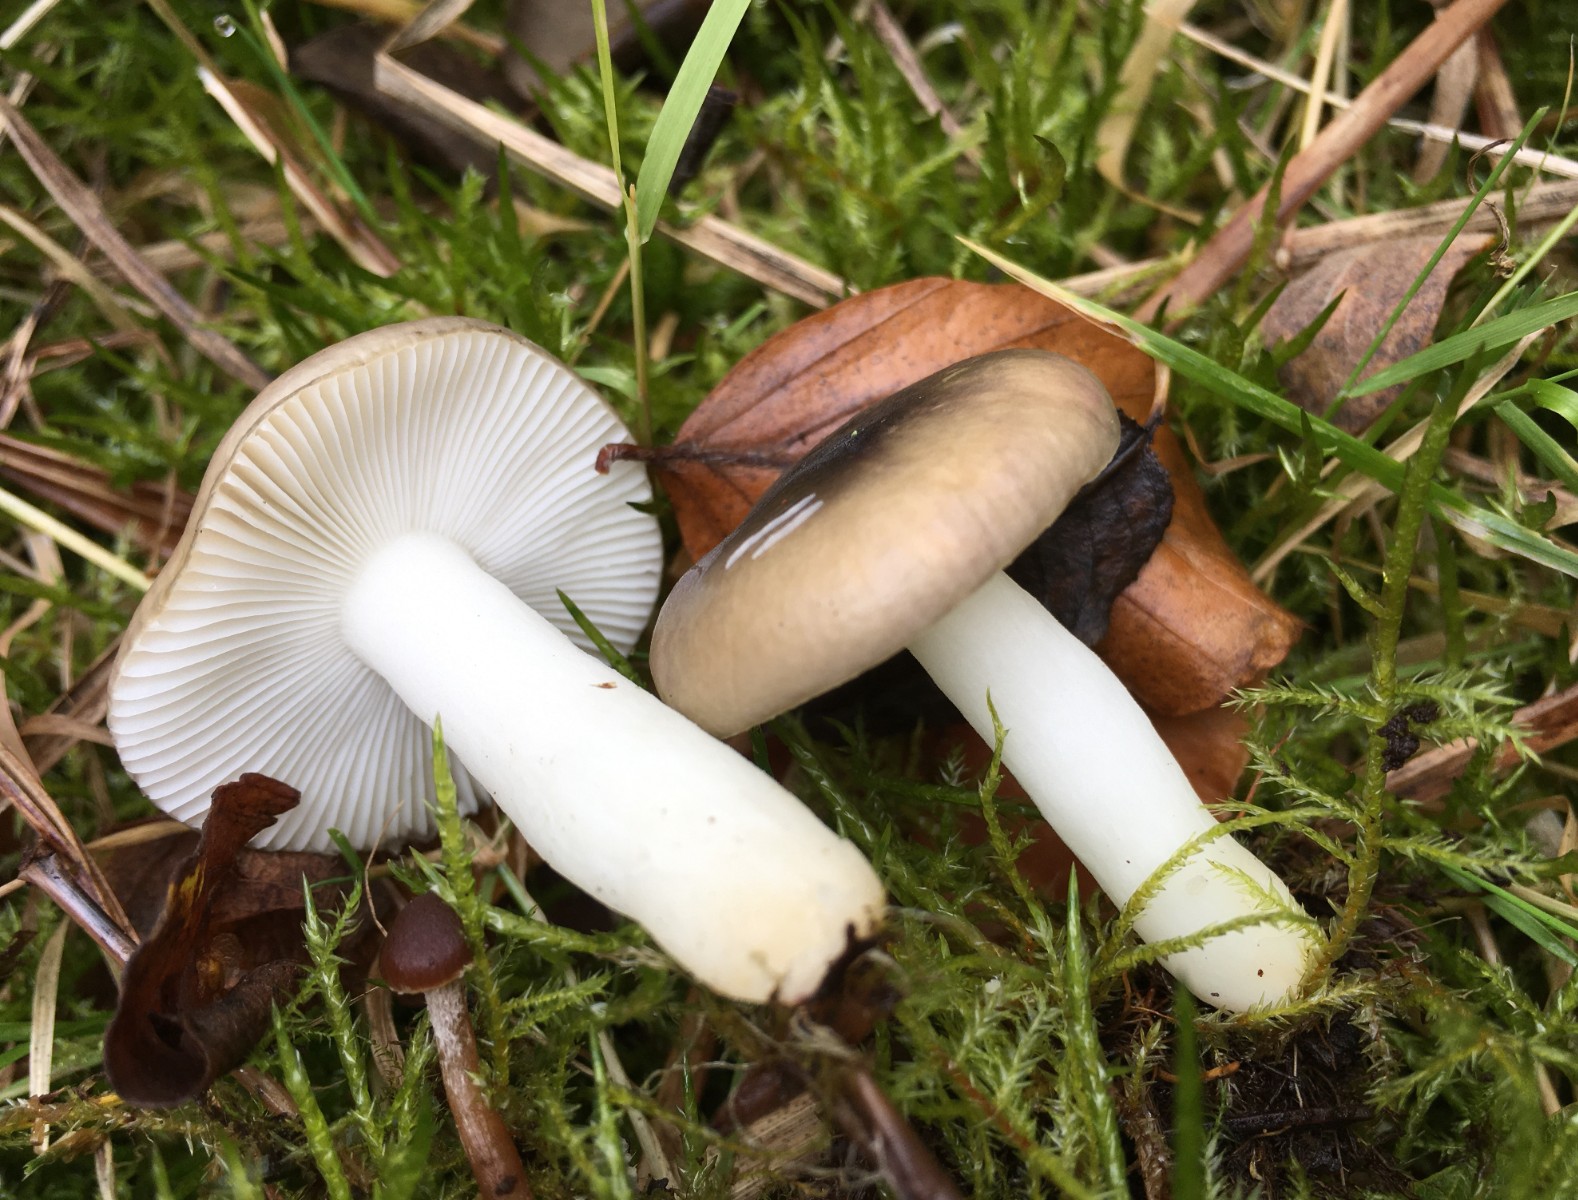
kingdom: Fungi
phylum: Basidiomycota
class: Agaricomycetes
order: Russulales
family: Russulaceae
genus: Russula
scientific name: Russula laccata
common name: klit-skørhat
